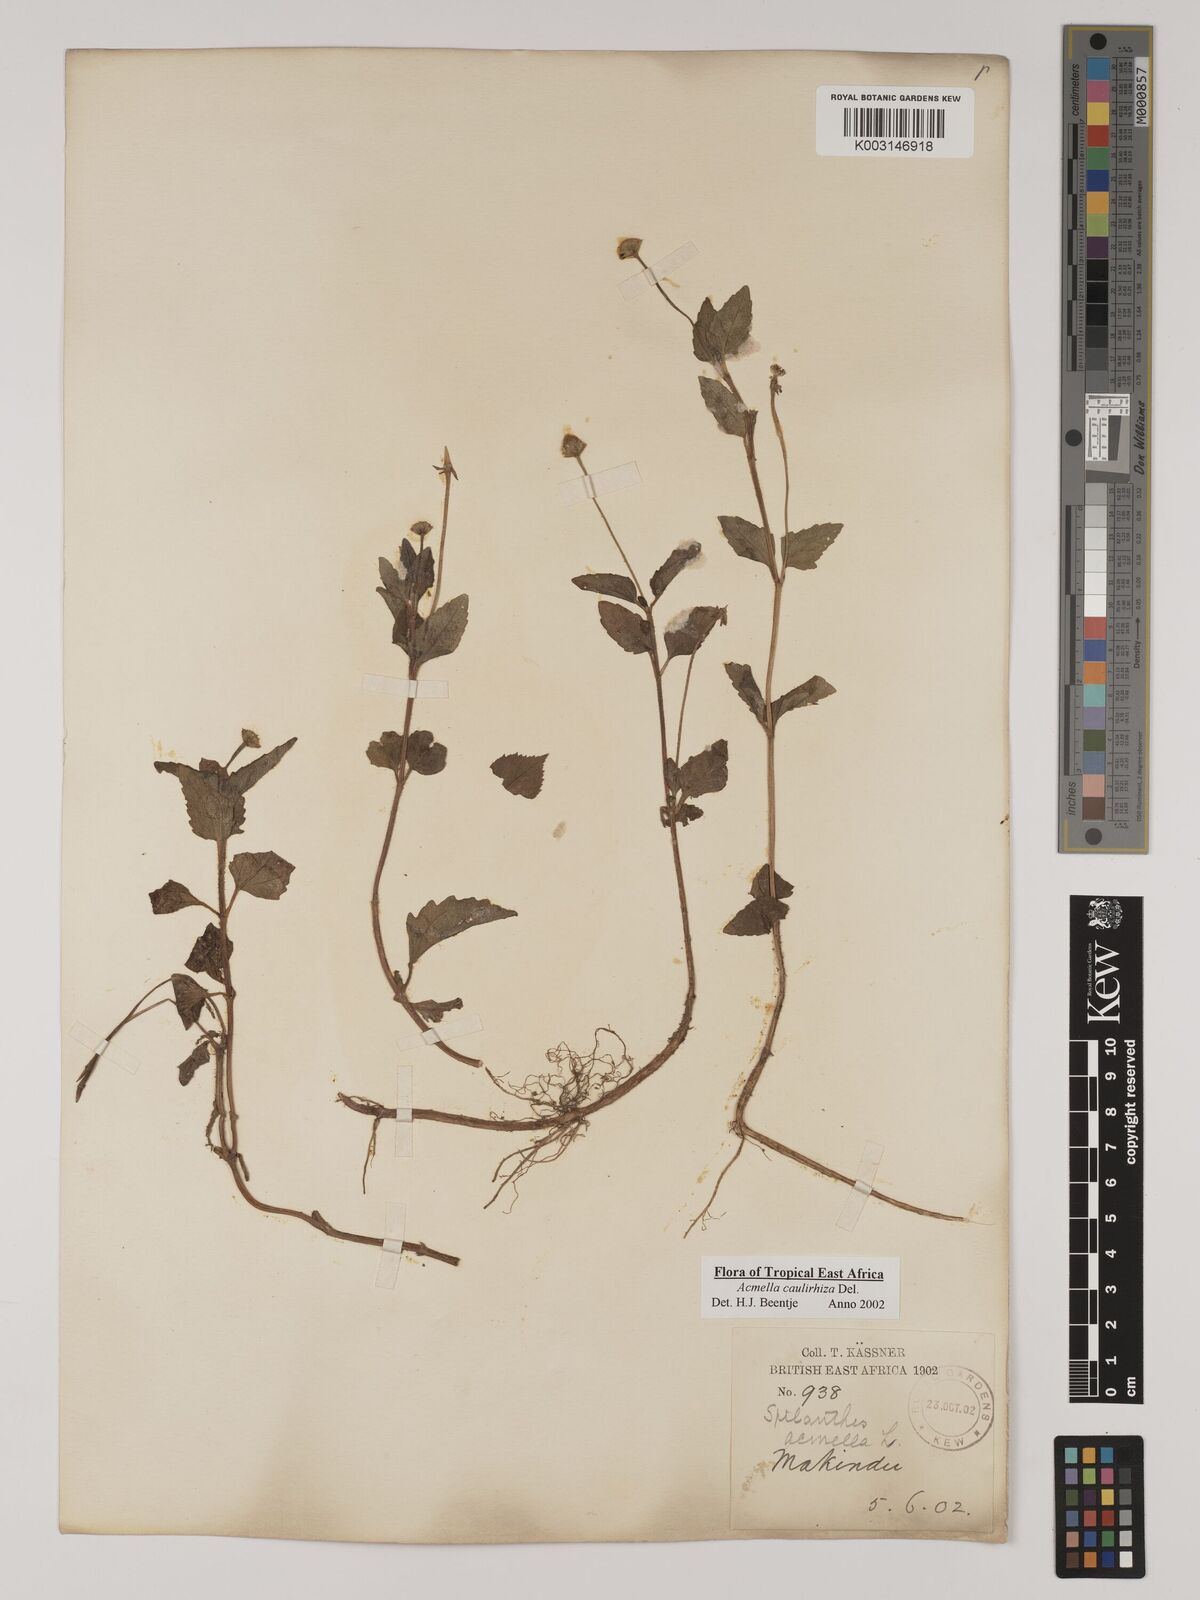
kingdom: Plantae
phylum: Tracheophyta
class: Magnoliopsida
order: Asterales
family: Asteraceae
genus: Acmella
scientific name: Acmella caulirhiza
